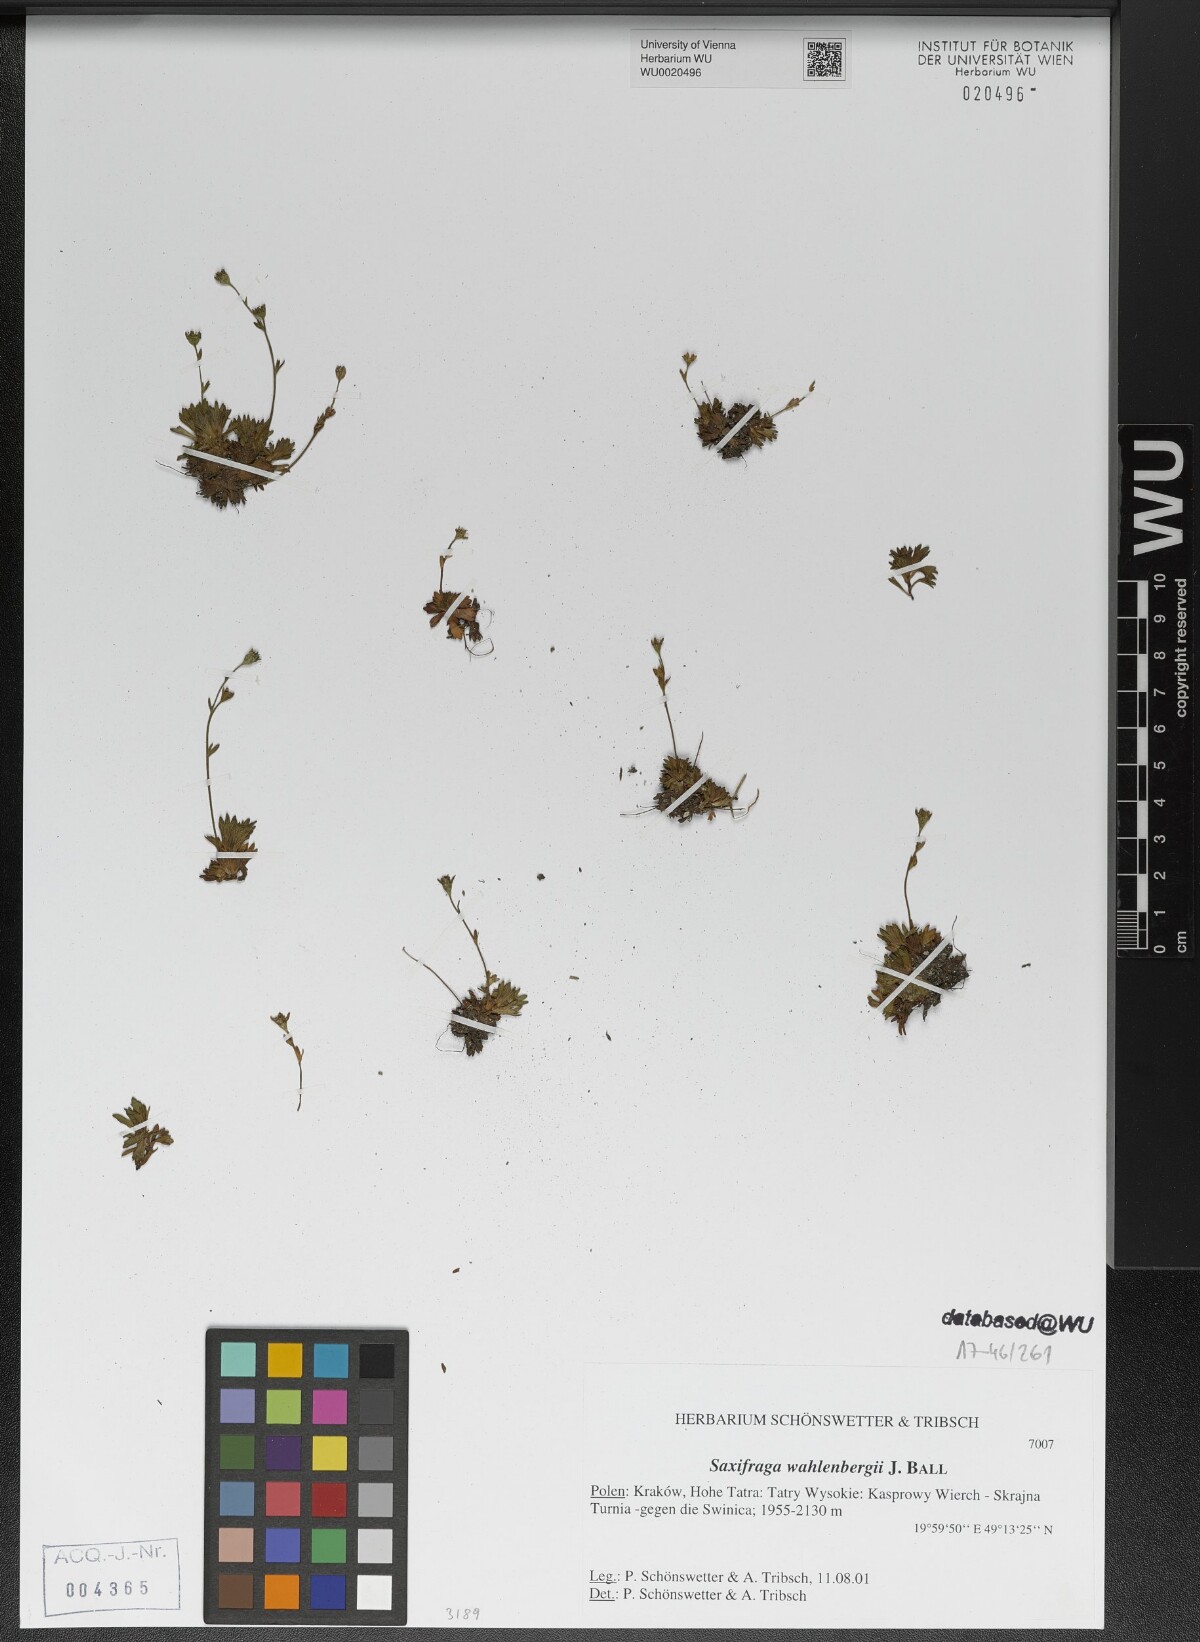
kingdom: Plantae
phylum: Tracheophyta
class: Magnoliopsida
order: Saxifragales
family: Saxifragaceae
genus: Saxifraga
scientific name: Saxifraga wahlenbergii
